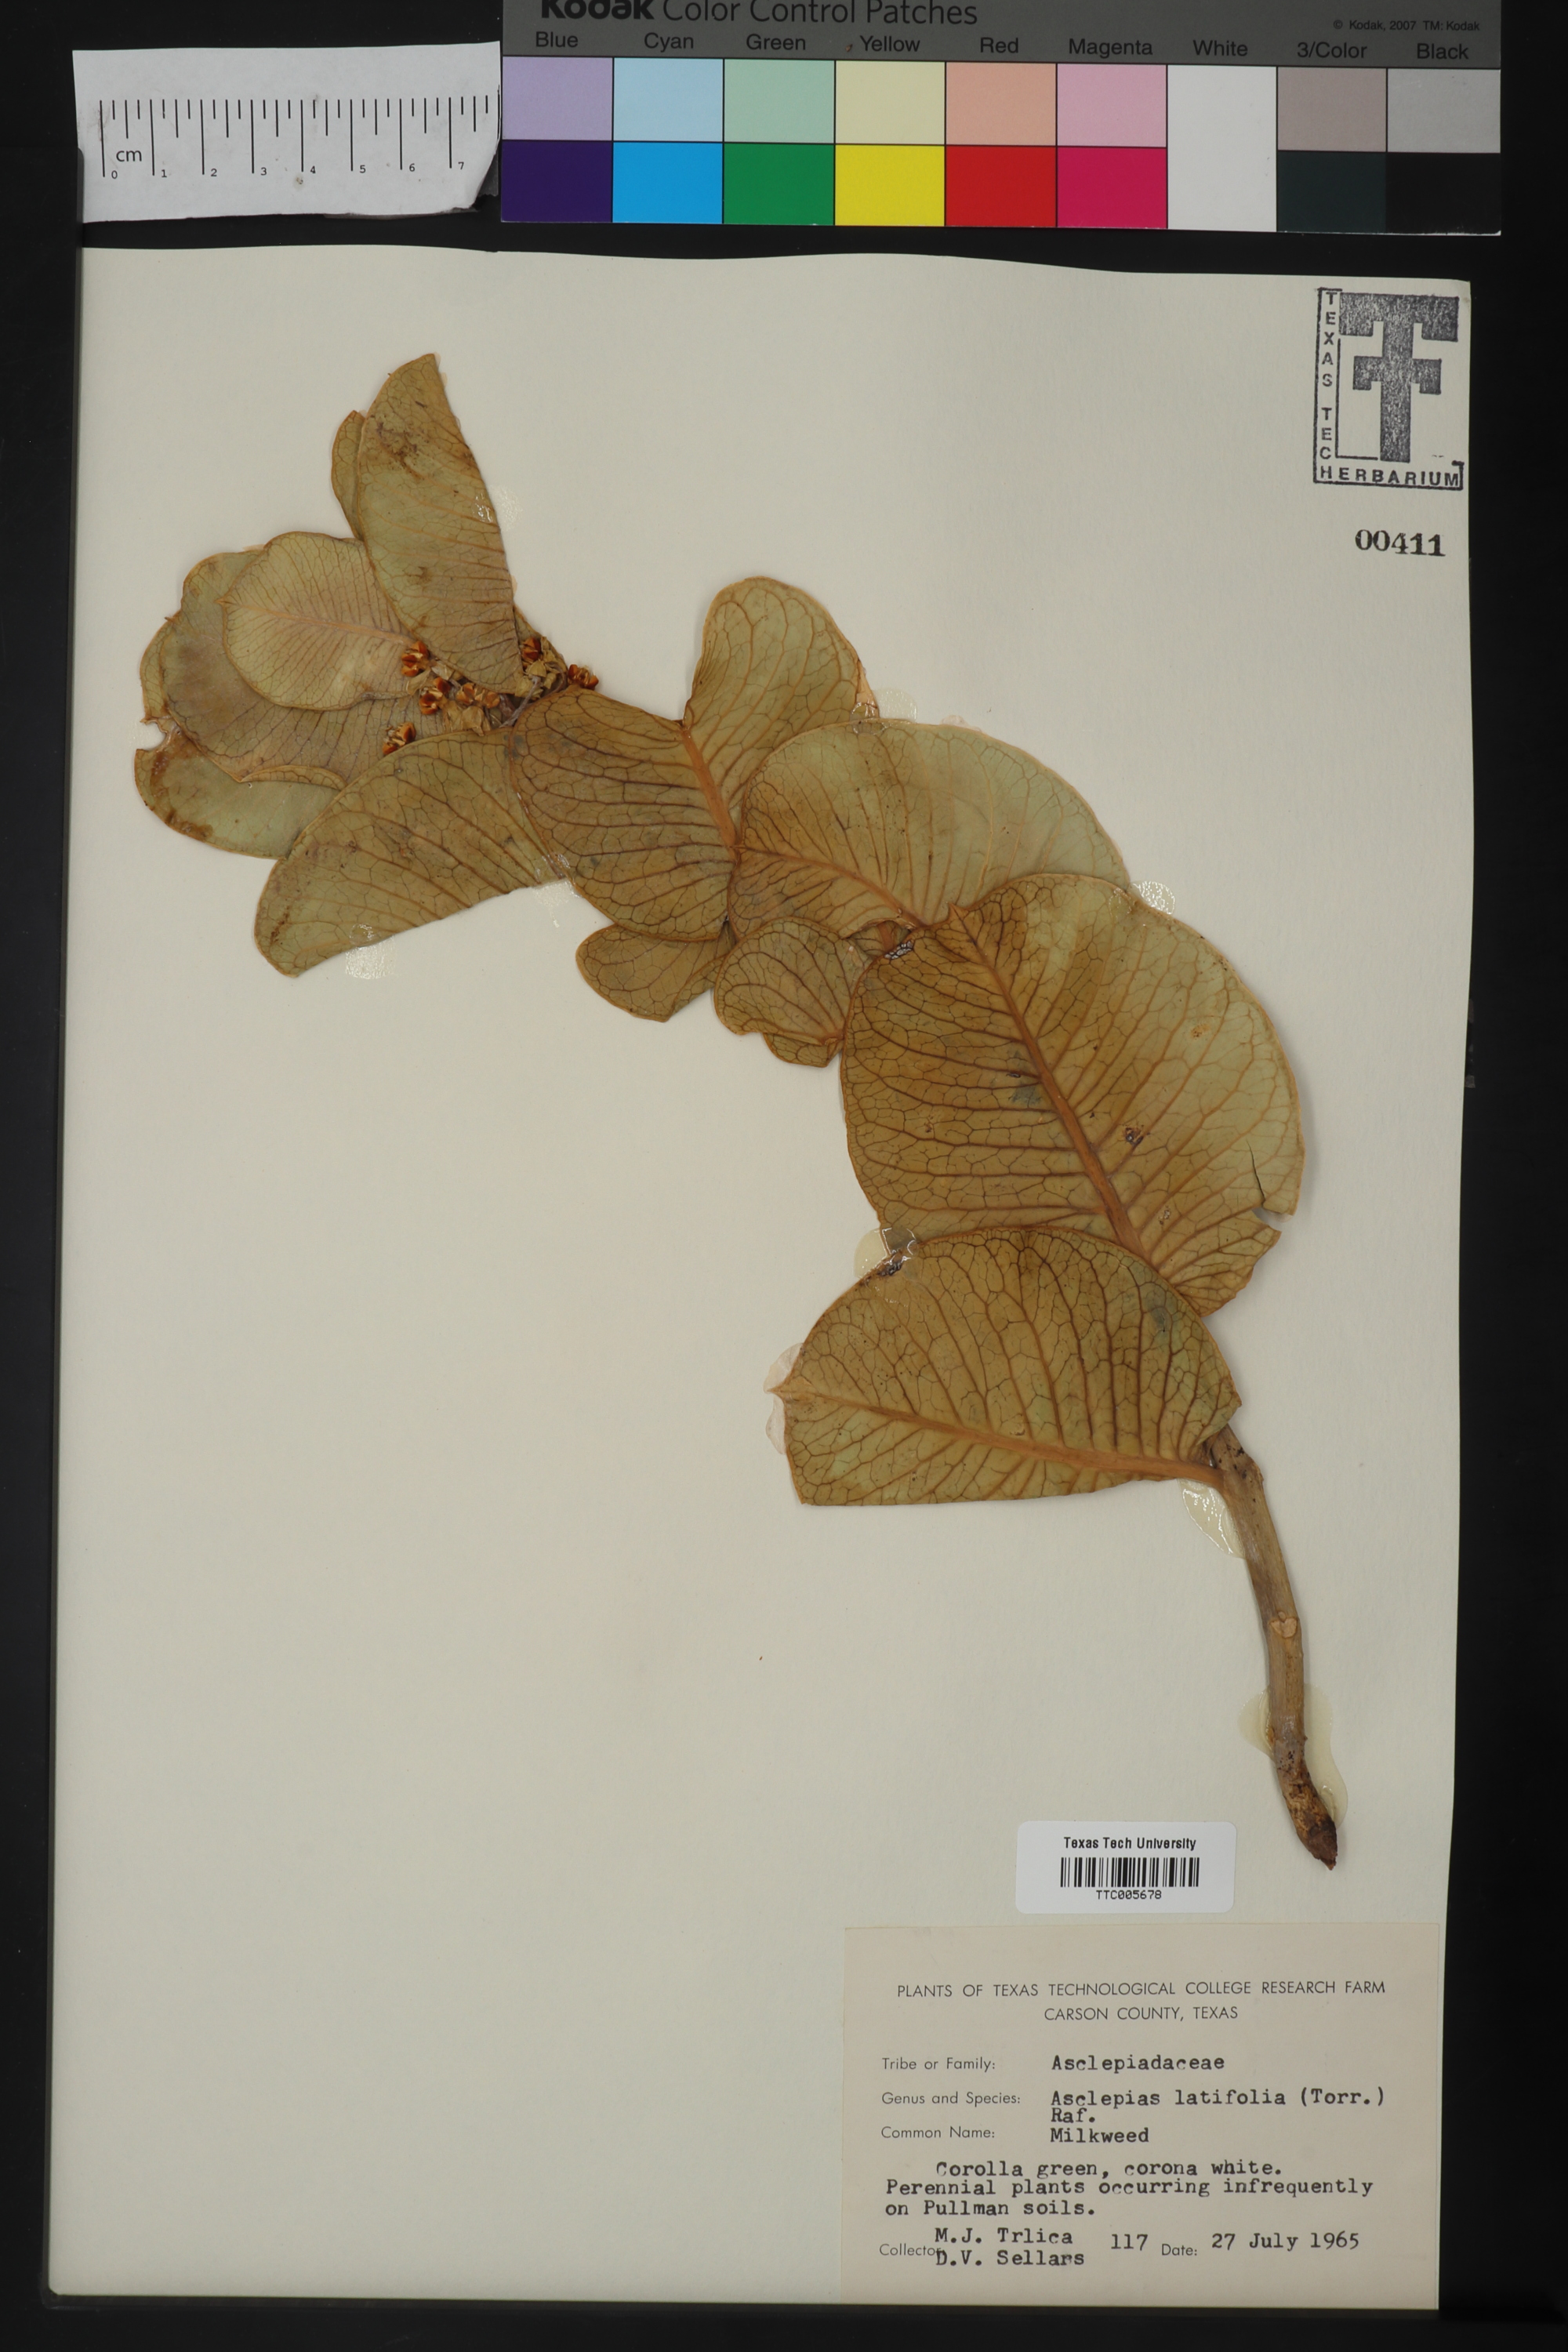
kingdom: Plantae
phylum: Tracheophyta
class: Magnoliopsida
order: Gentianales
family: Apocynaceae
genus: Asclepias
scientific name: Asclepias latifolia
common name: Broadleaf milkweed
